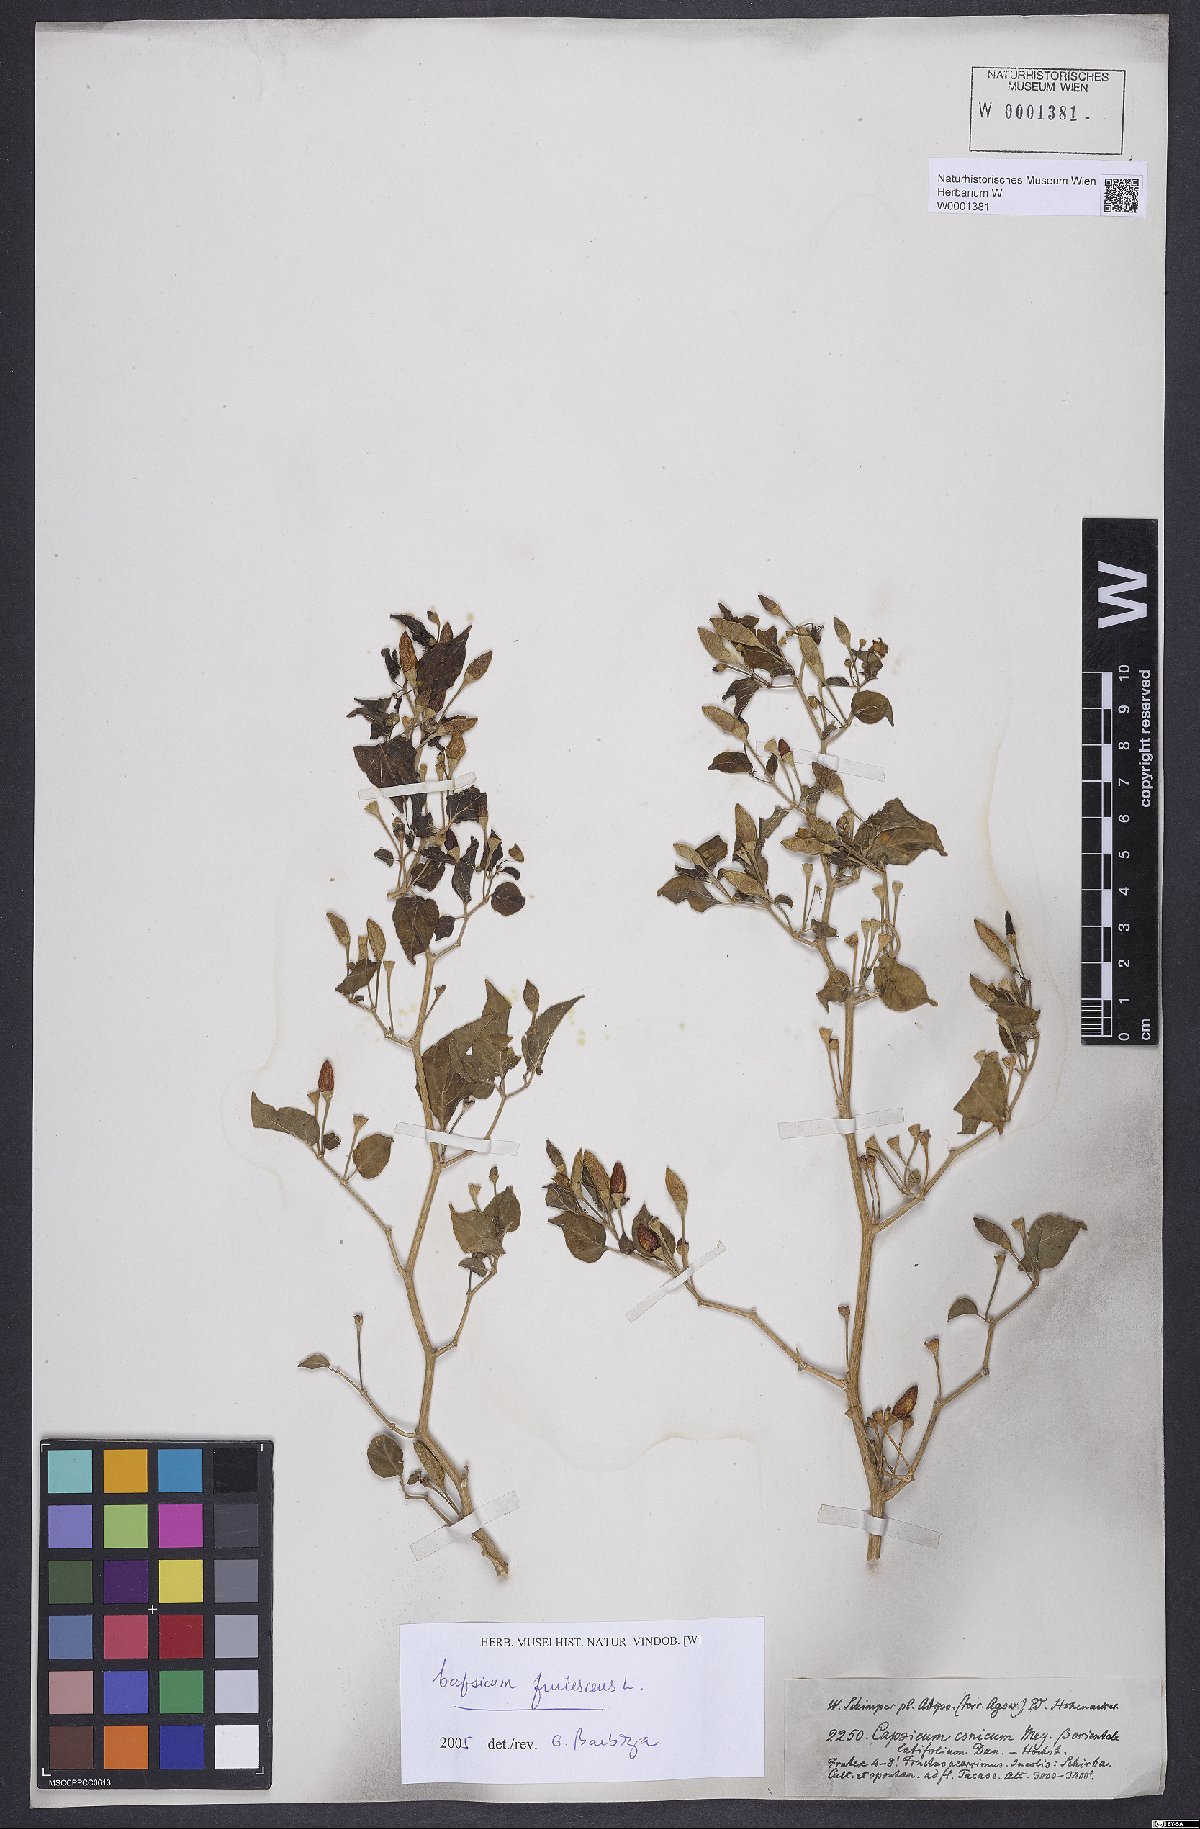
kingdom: Plantae
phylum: Tracheophyta
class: Magnoliopsida
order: Solanales
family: Solanaceae
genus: Capsicum
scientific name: Capsicum frutescens
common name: Bird pepper
